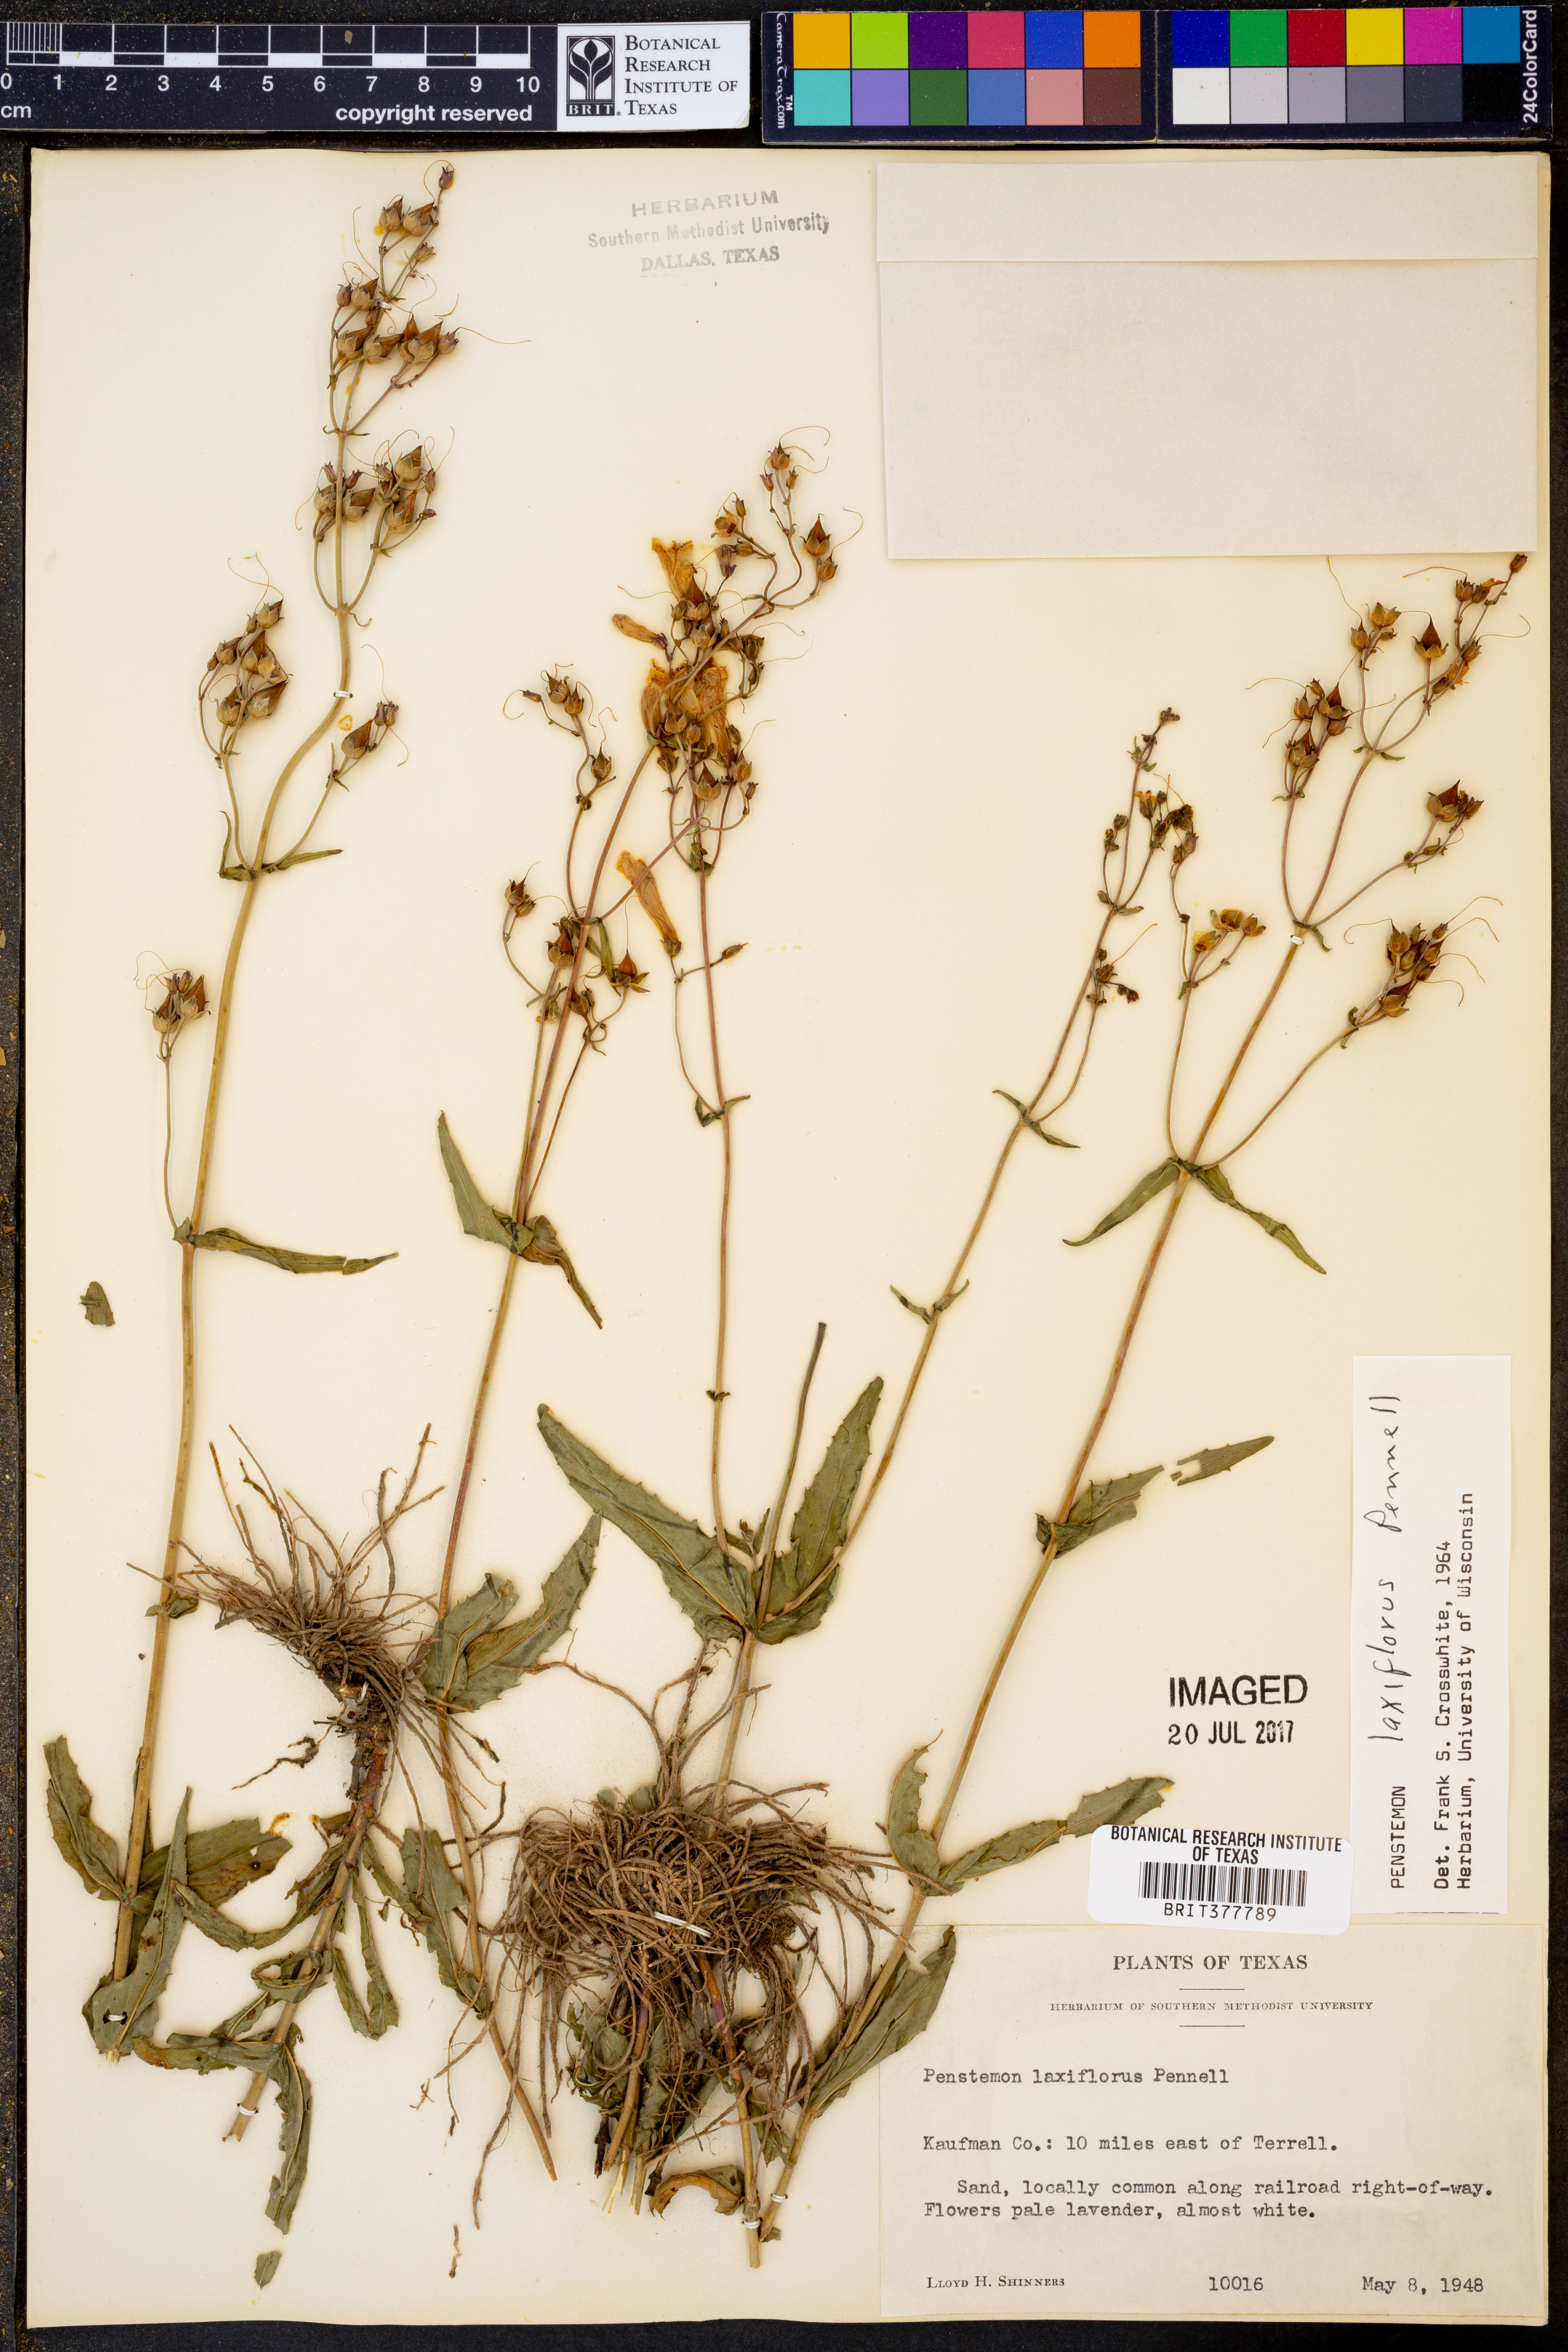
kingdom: Plantae
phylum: Tracheophyta
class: Magnoliopsida
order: Lamiales
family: Plantaginaceae
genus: Penstemon
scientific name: Penstemon laxiflorus
